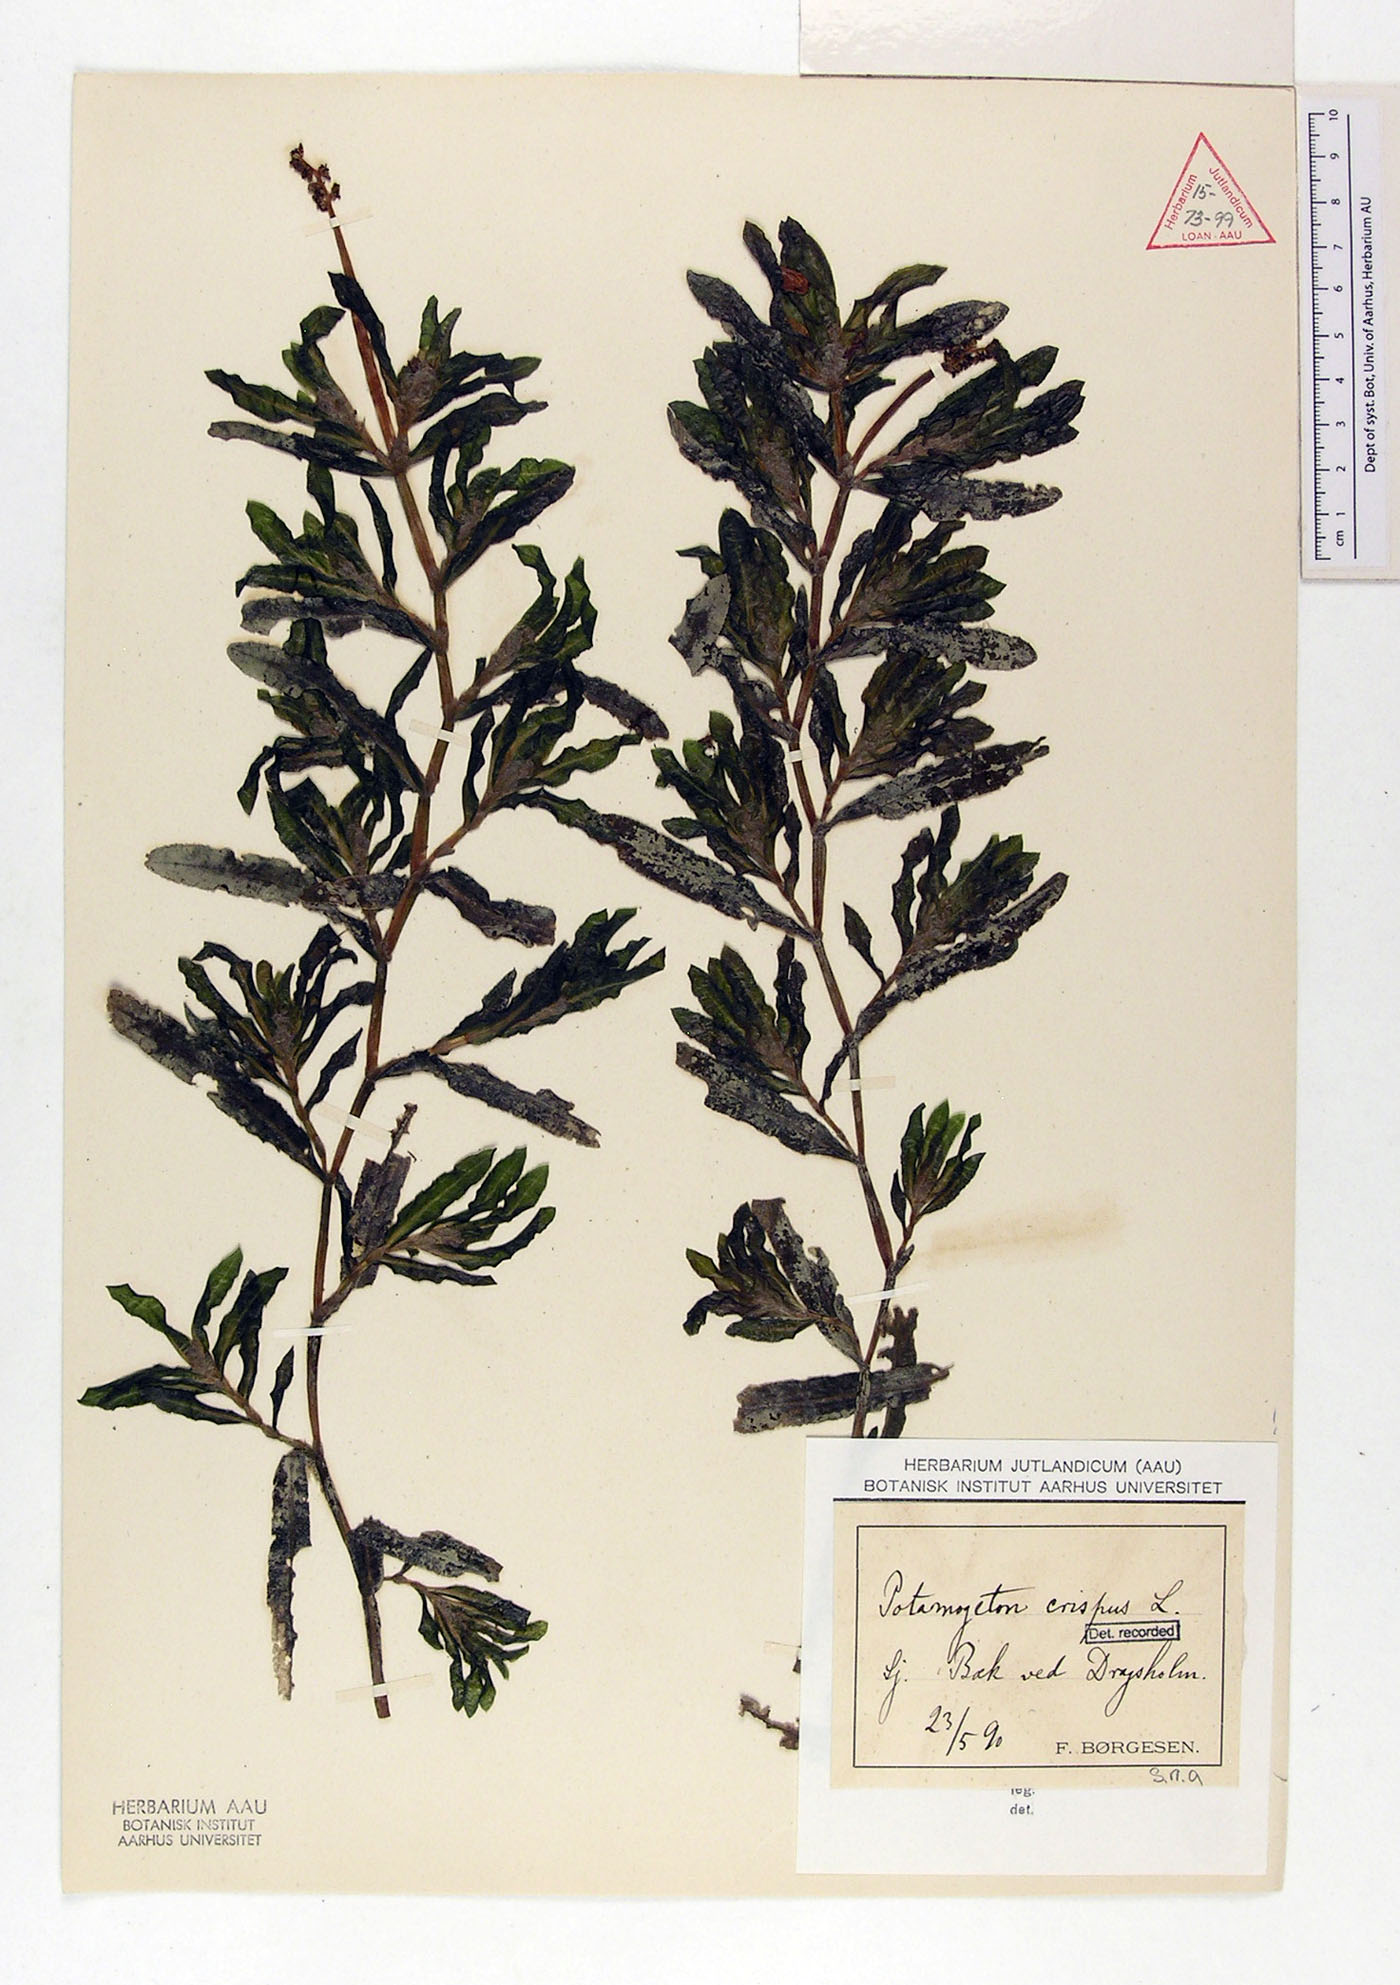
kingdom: Plantae
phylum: Tracheophyta
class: Liliopsida
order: Alismatales
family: Potamogetonaceae
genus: Potamogeton
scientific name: Potamogeton crispus
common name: Curled pondweed
